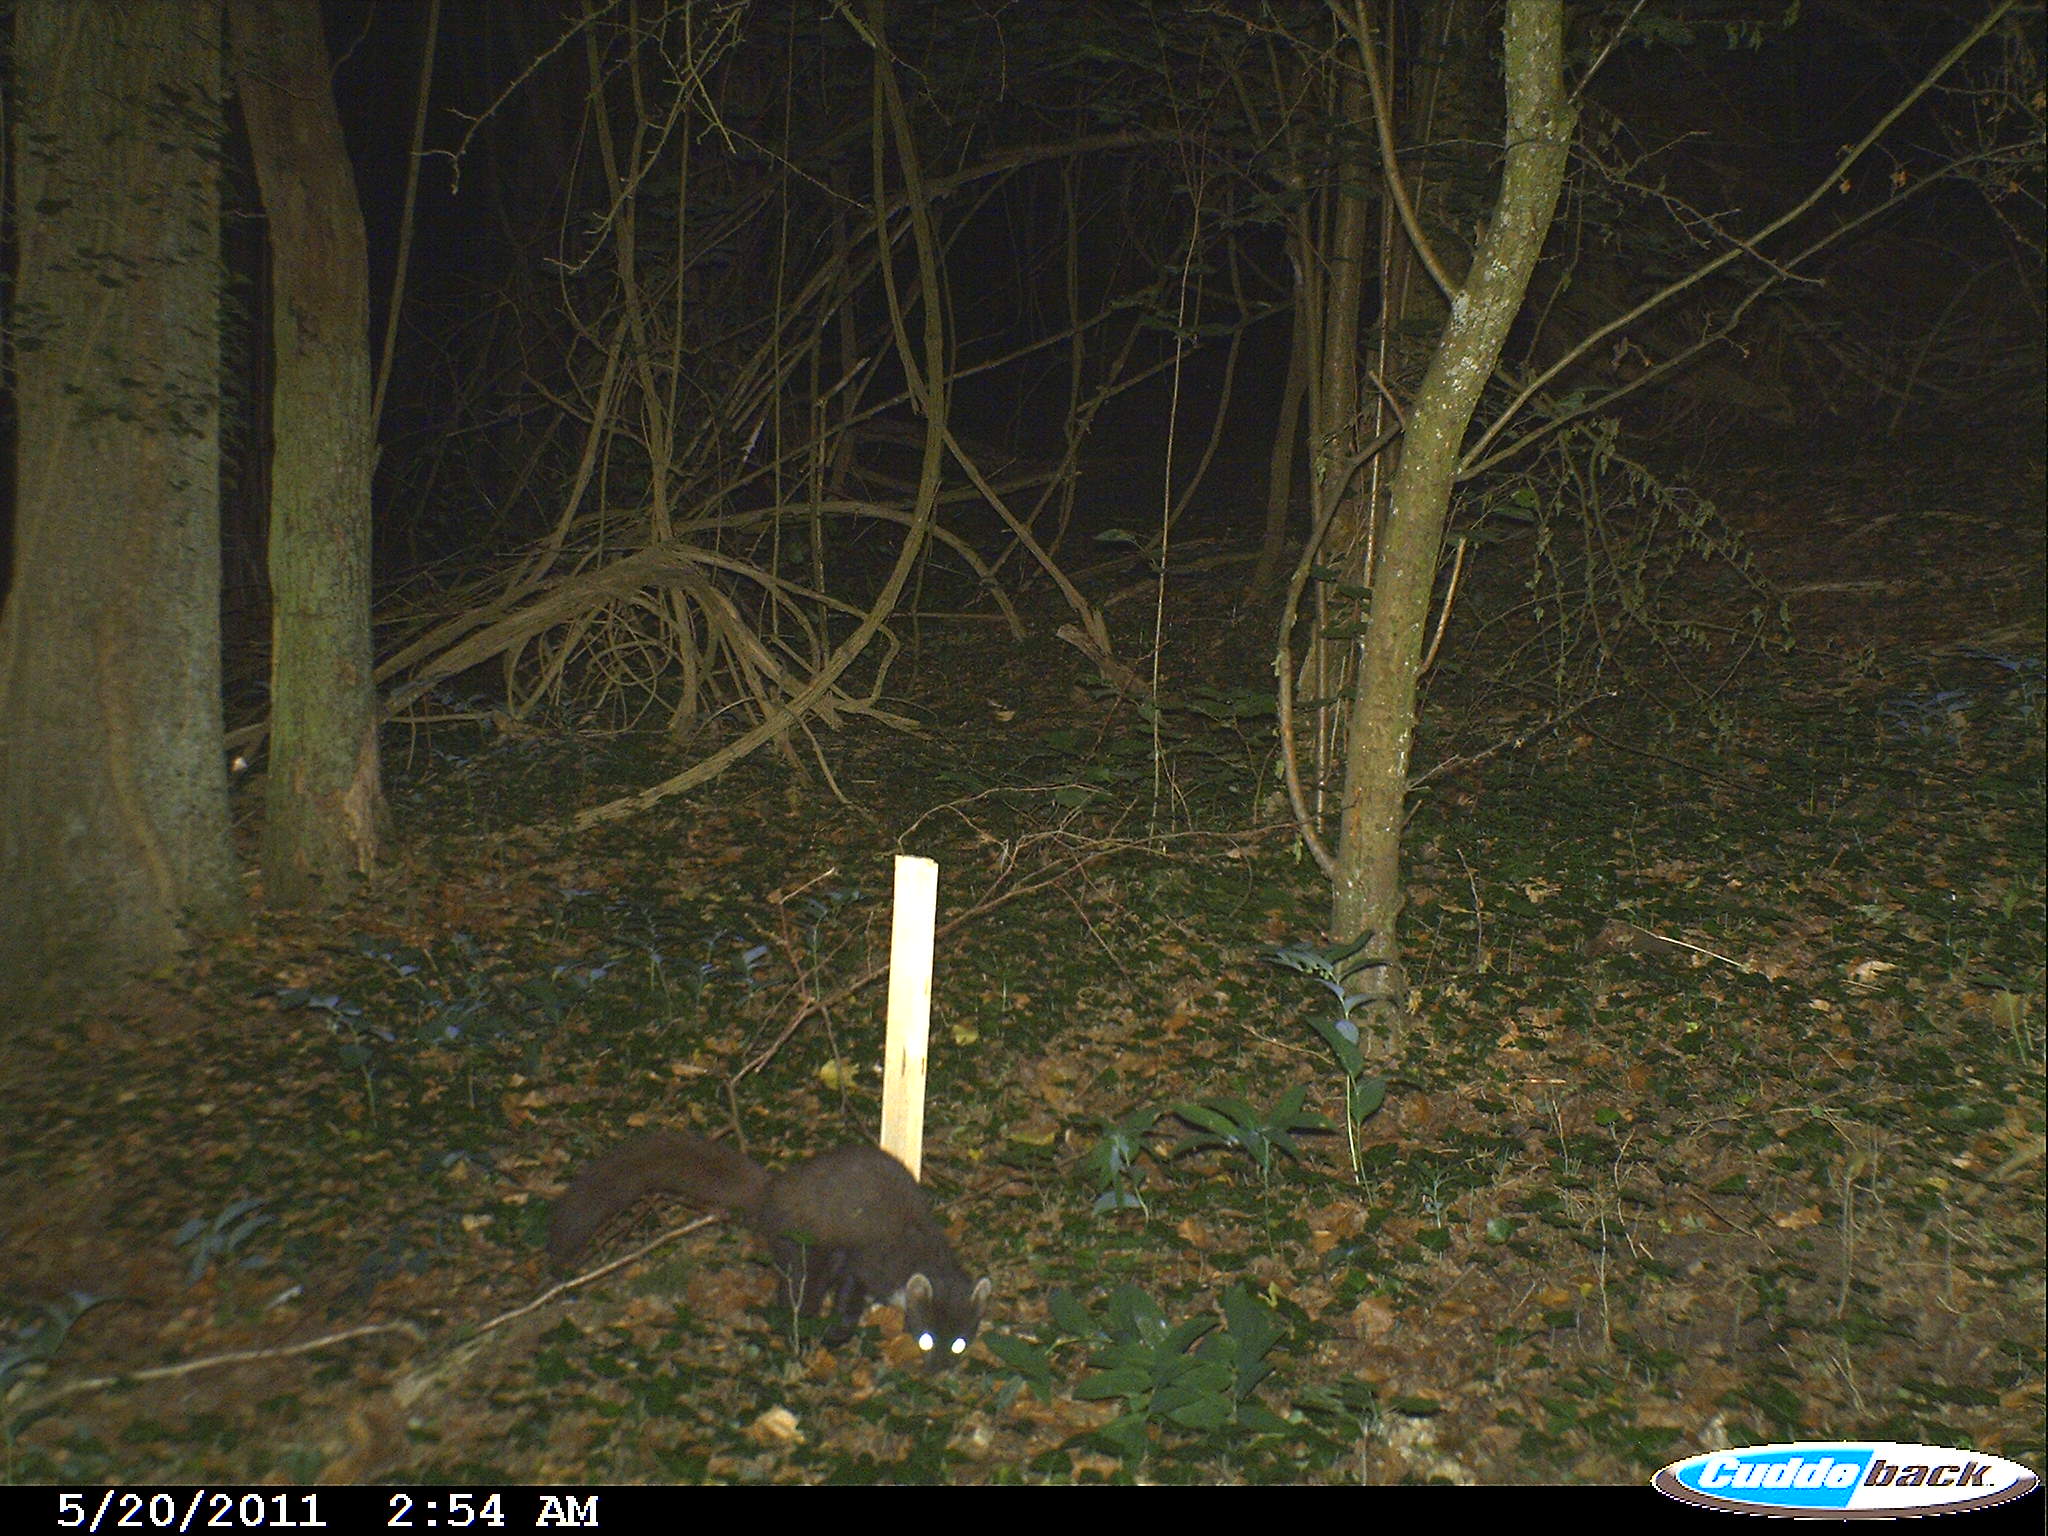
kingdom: Animalia
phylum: Chordata
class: Mammalia
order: Carnivora
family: Mustelidae
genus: Martes
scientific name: Martes martes
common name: European pine marten
